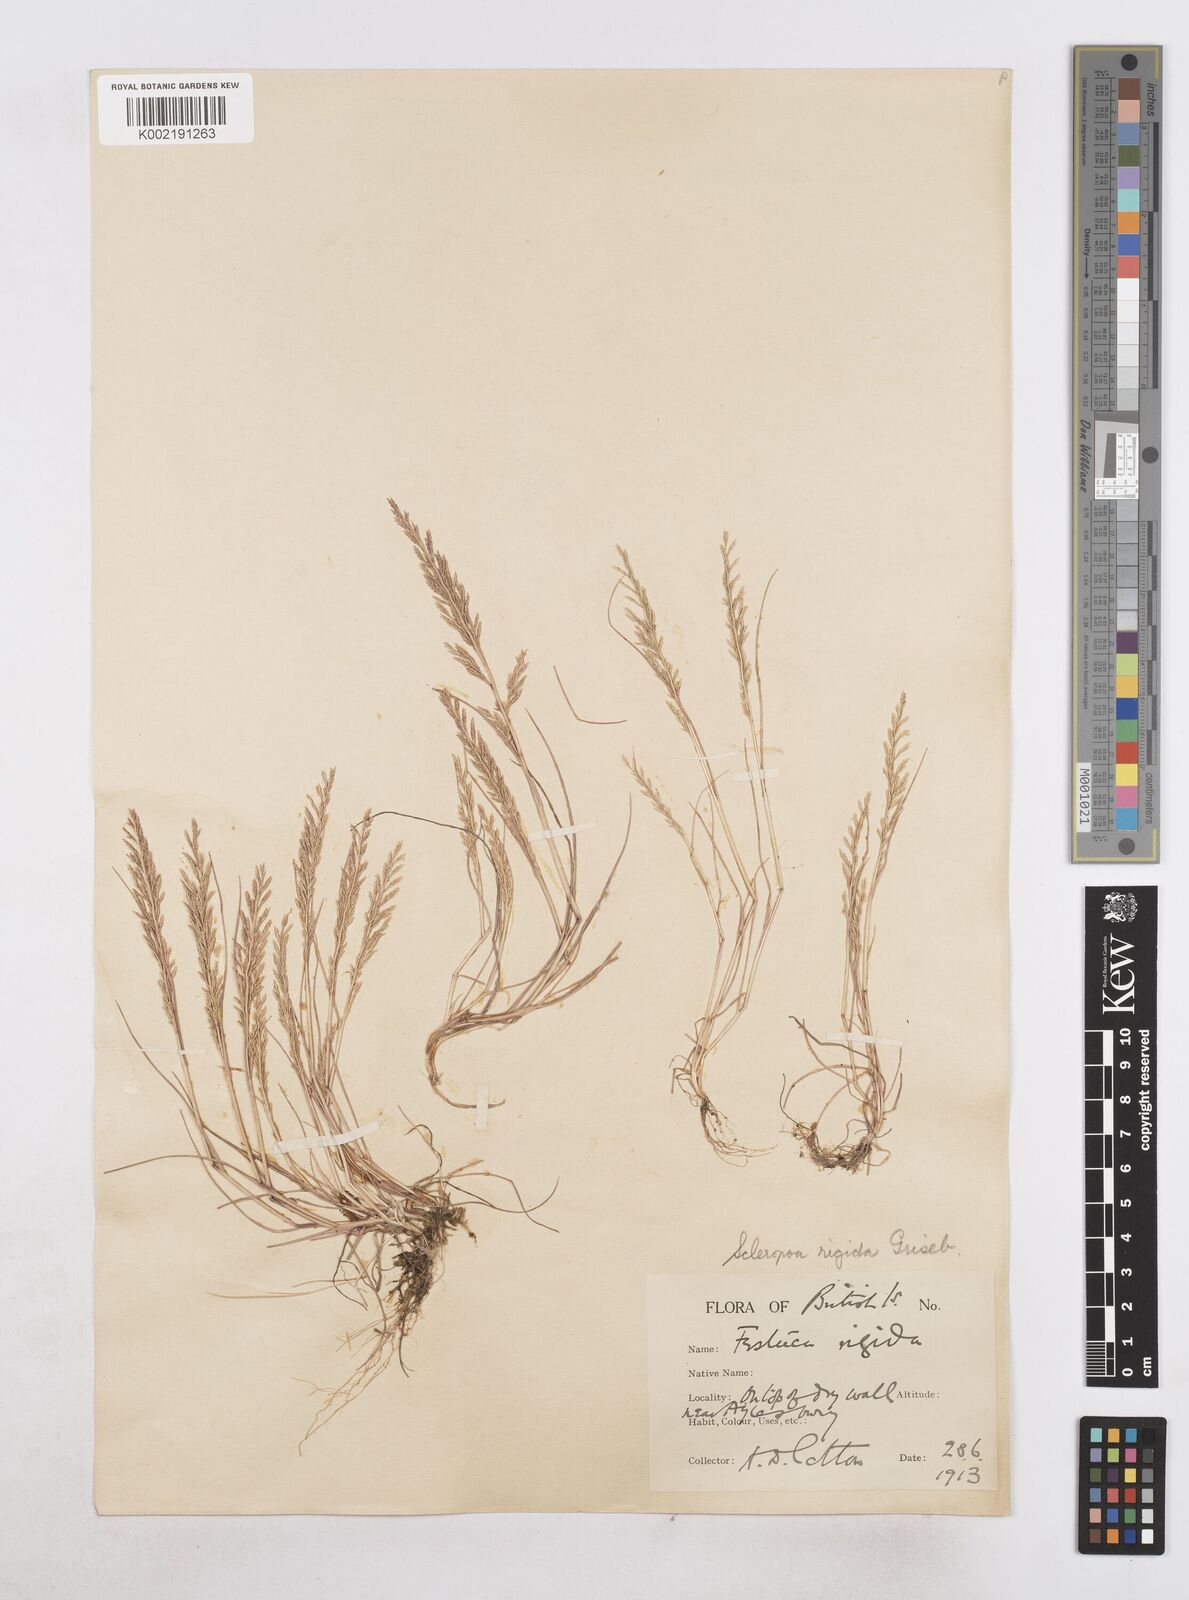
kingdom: Plantae
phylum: Tracheophyta
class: Liliopsida
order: Poales
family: Poaceae
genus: Catapodium
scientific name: Catapodium rigidum
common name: Fern-grass
